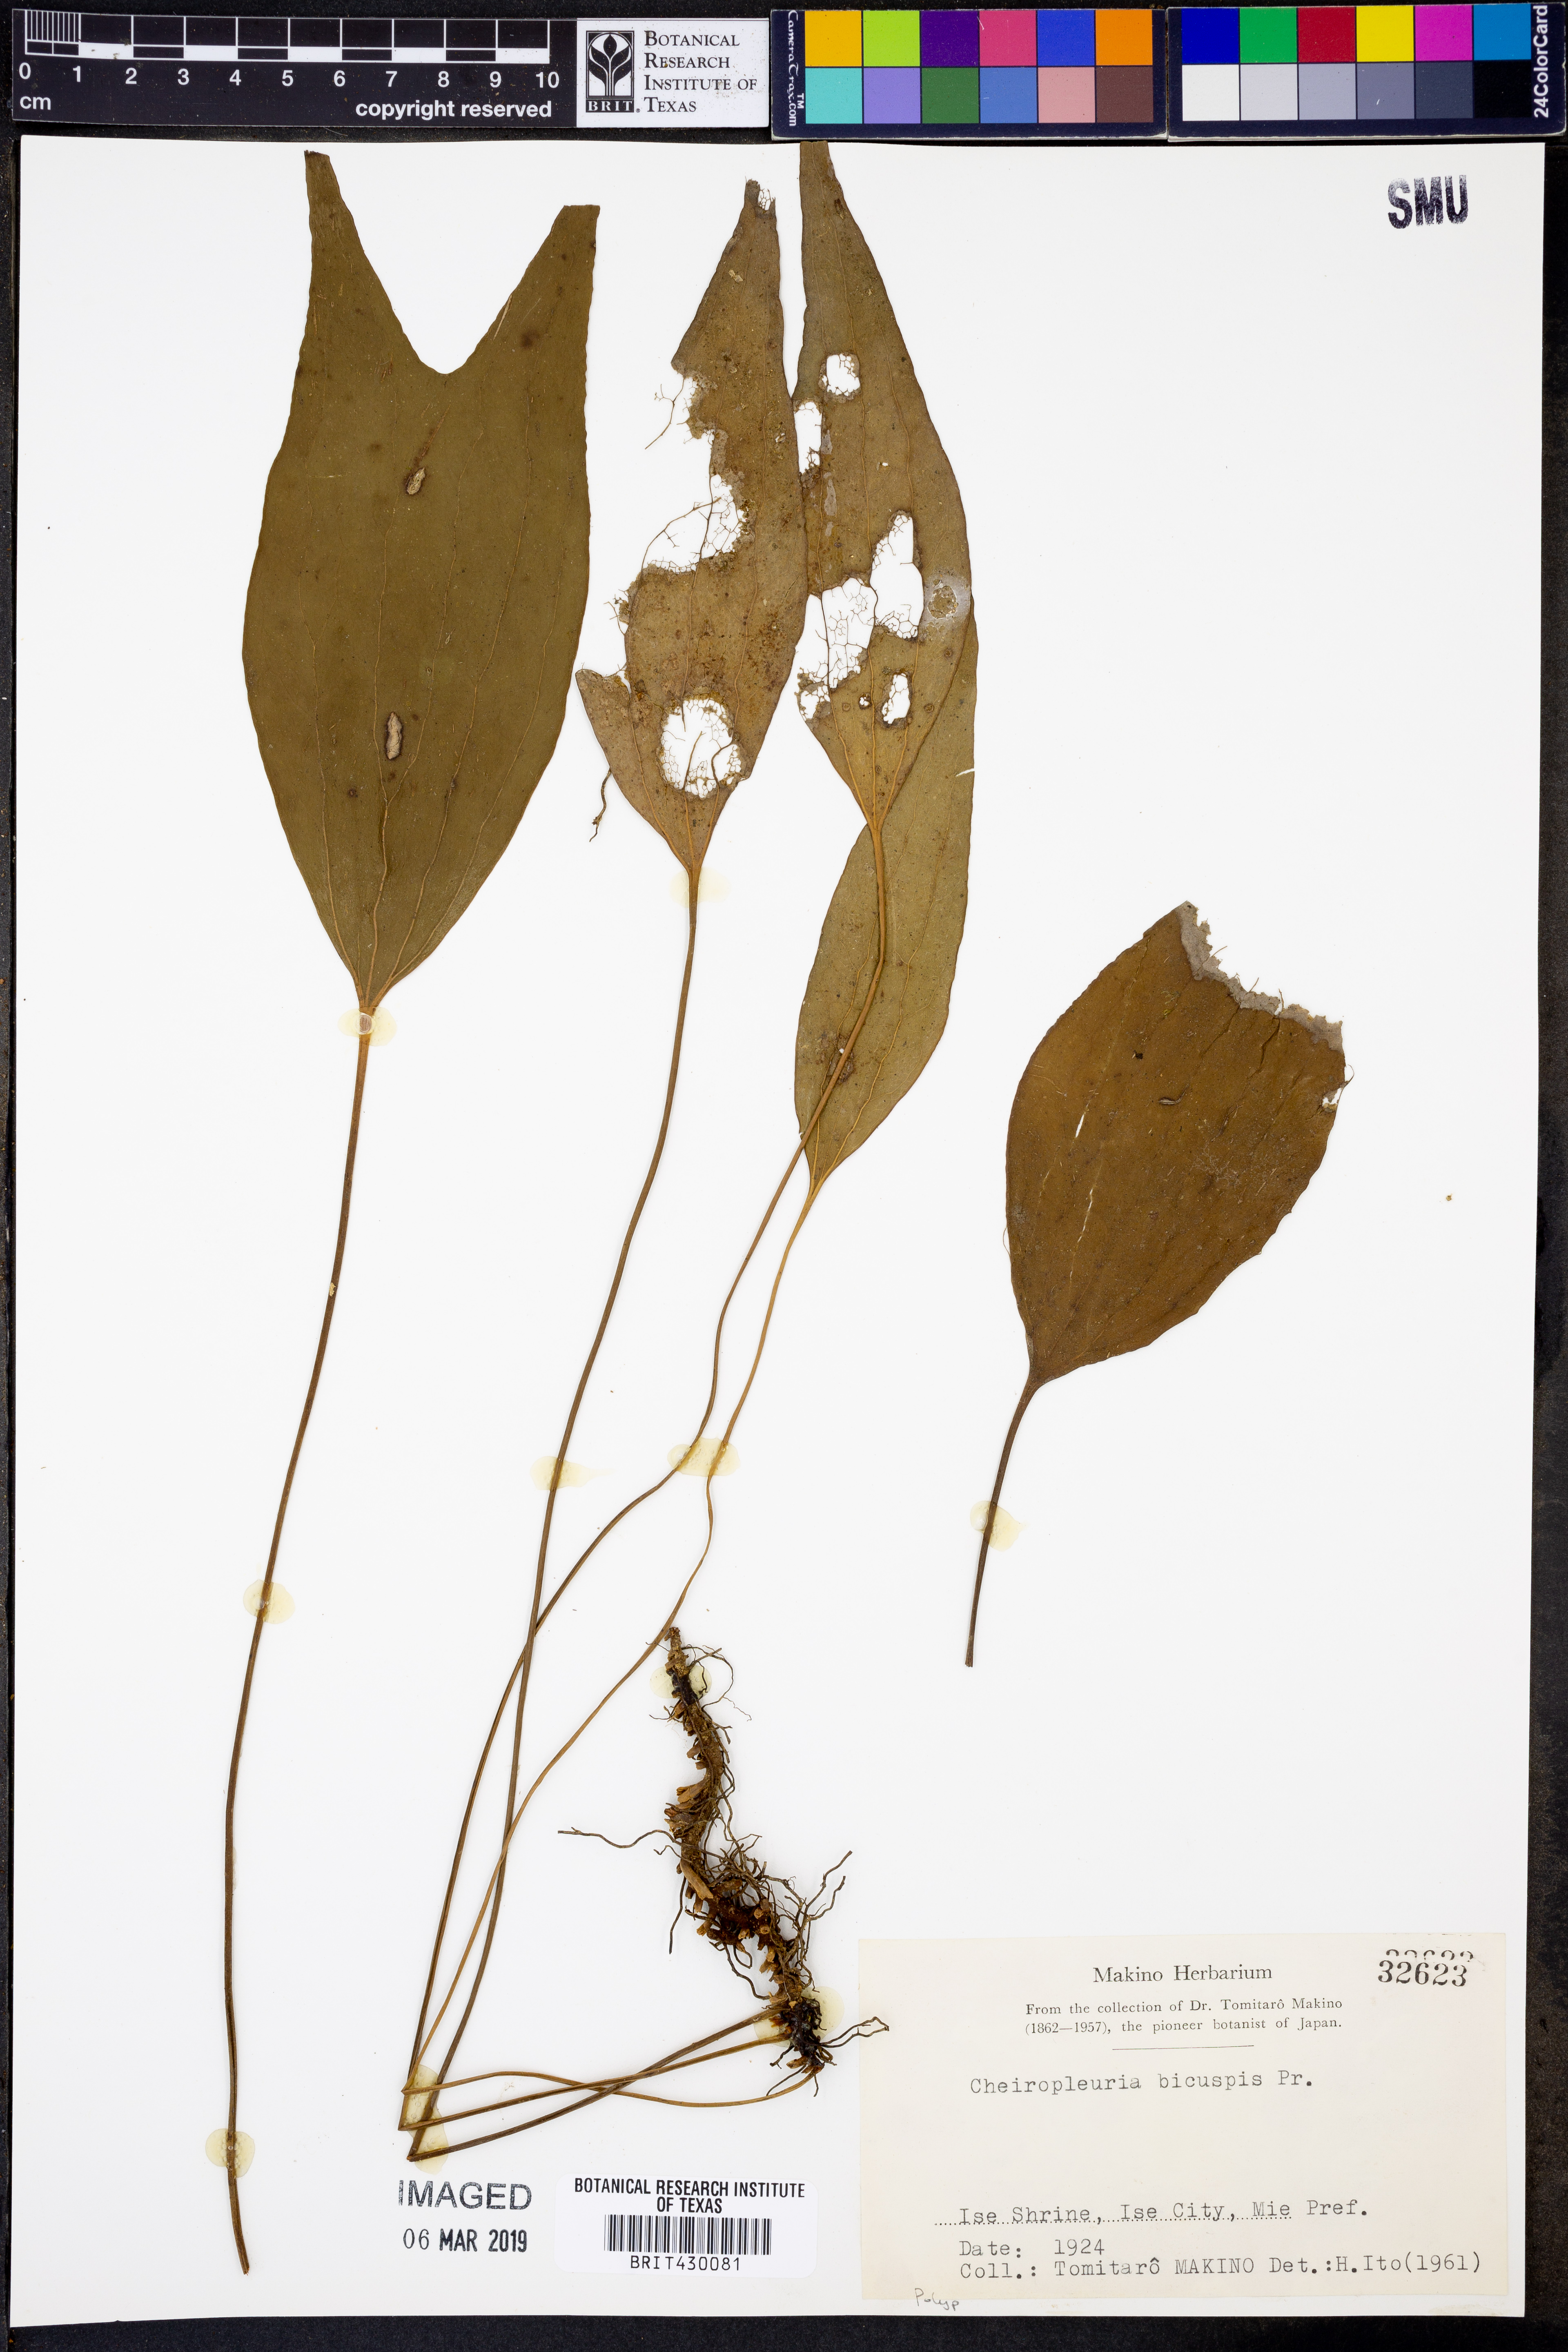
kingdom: Plantae
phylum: Tracheophyta
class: Polypodiopsida
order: Gleicheniales
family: Dipteridaceae
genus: Cheiropleuria
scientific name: Cheiropleuria bicuspis
